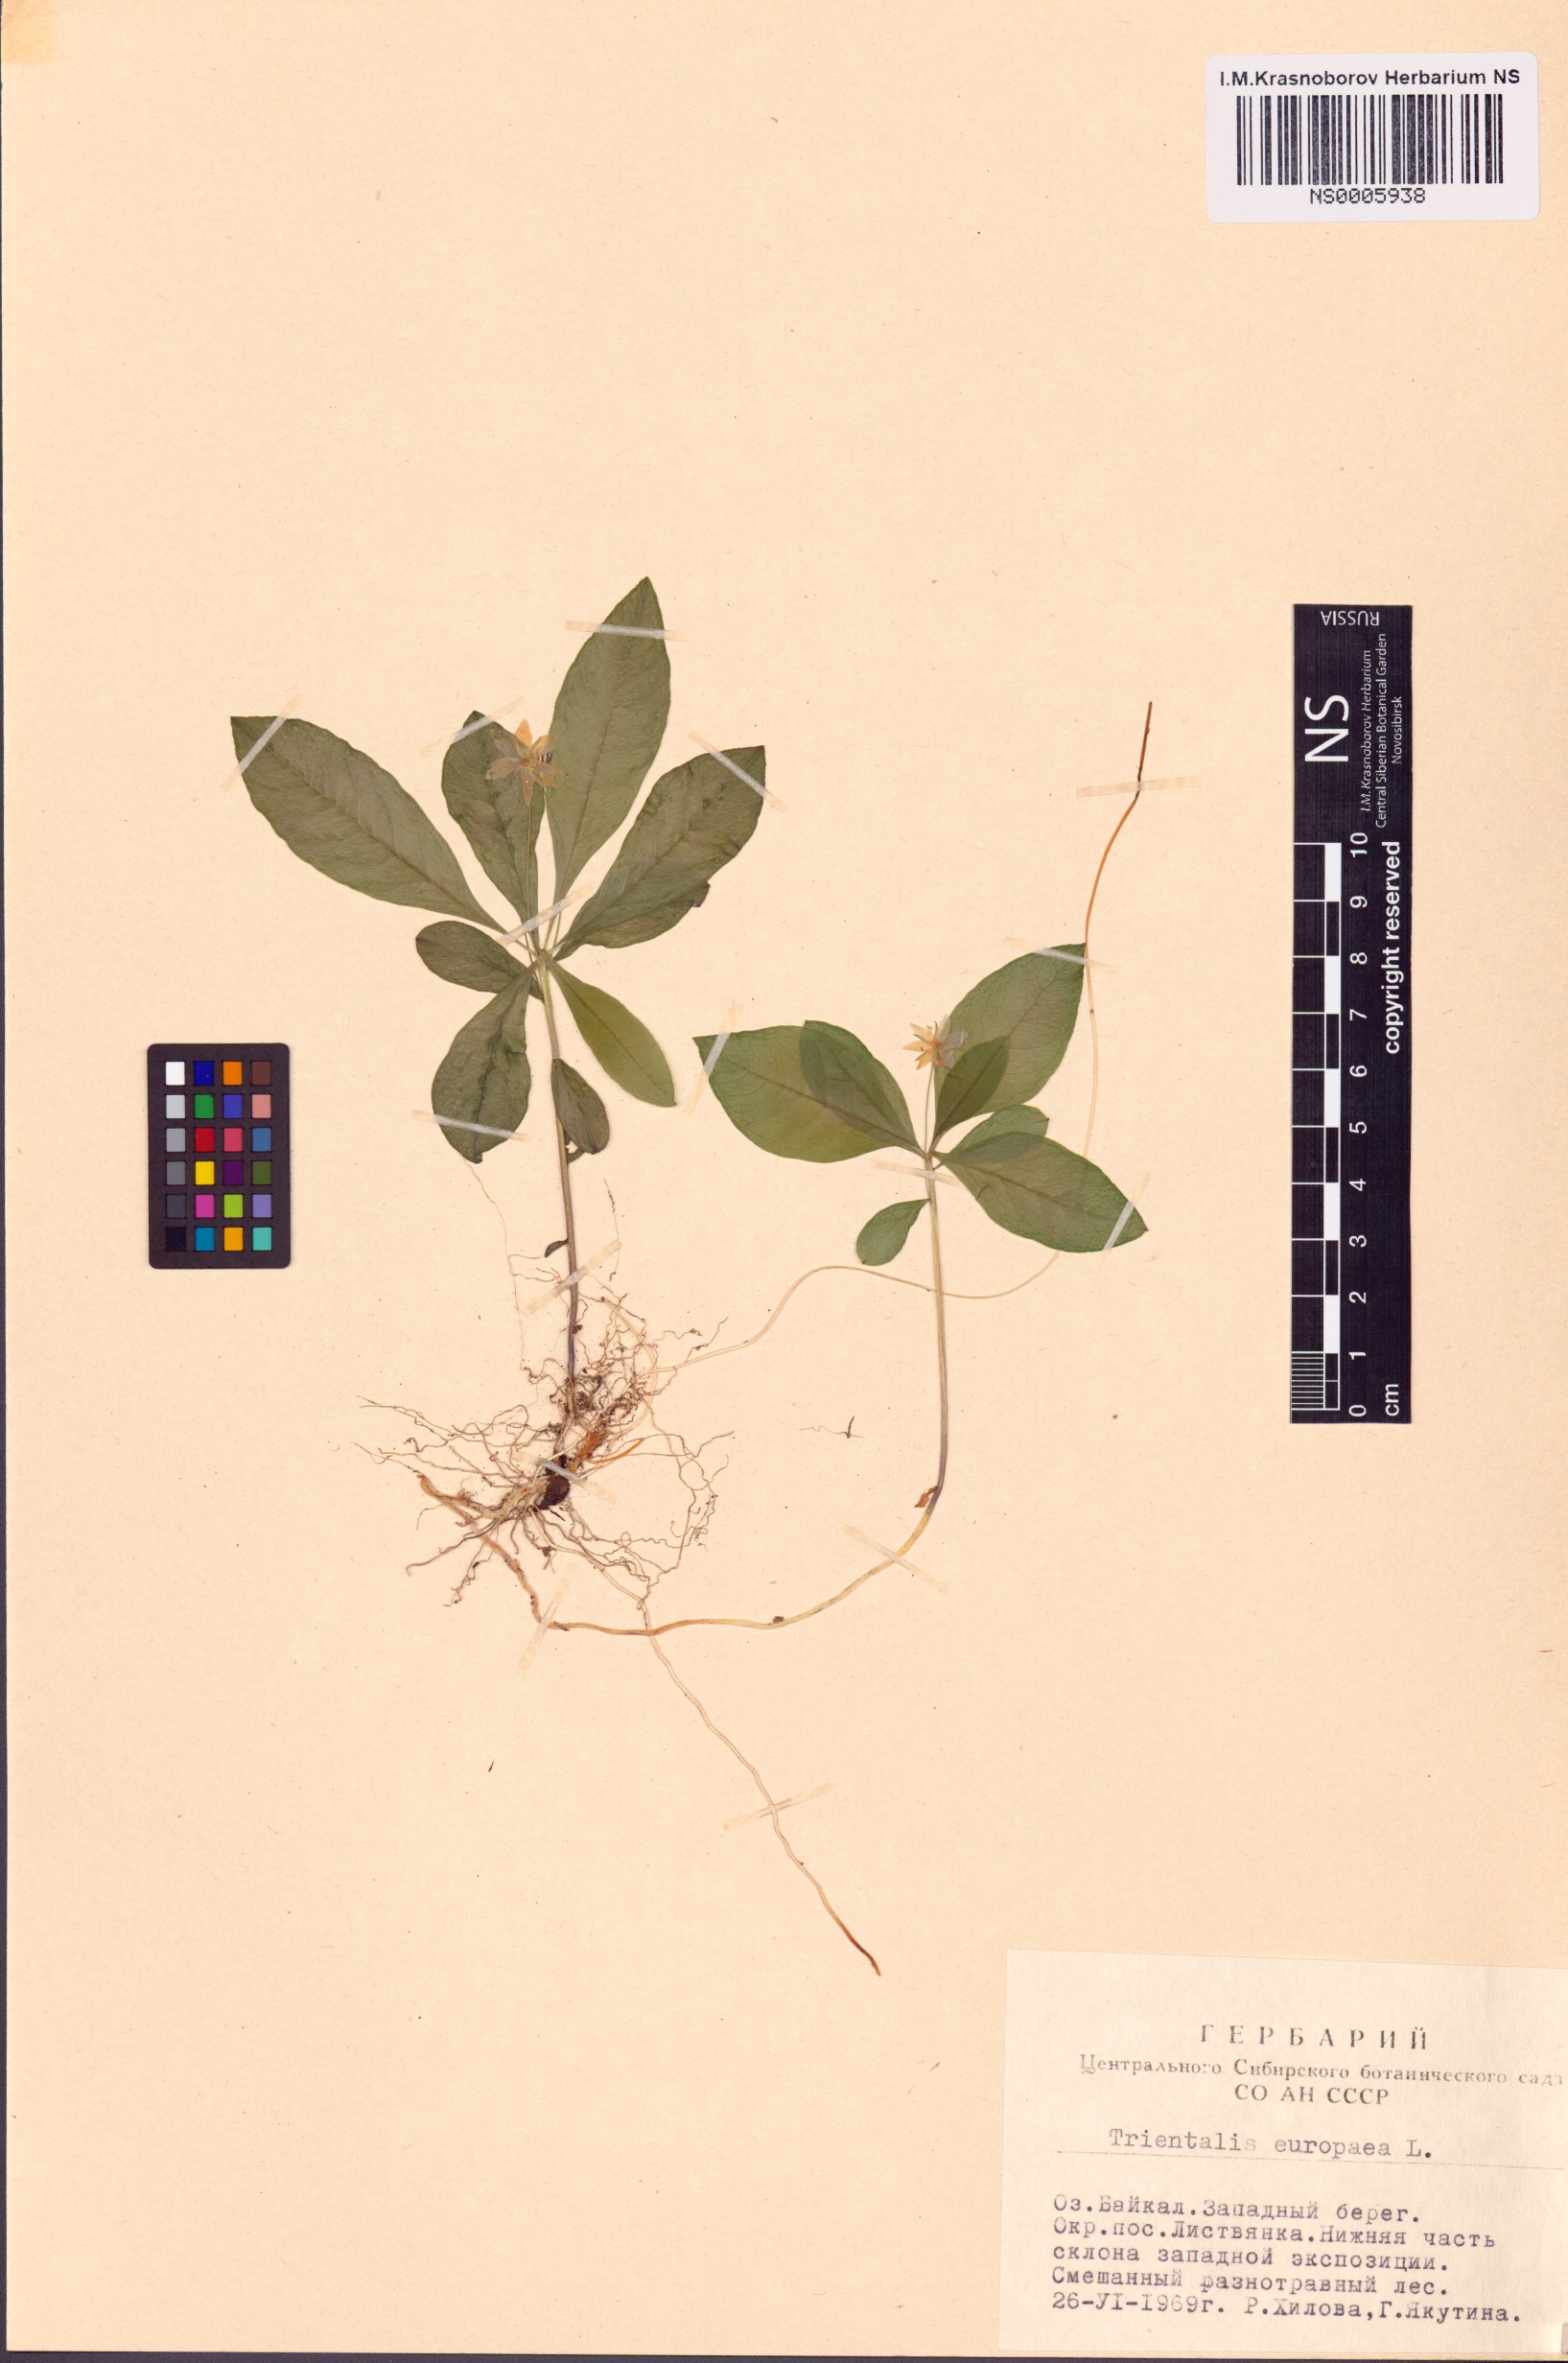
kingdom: Plantae
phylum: Tracheophyta
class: Magnoliopsida
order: Ericales
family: Primulaceae
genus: Lysimachia
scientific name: Lysimachia europaea
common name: Arctic starflower
